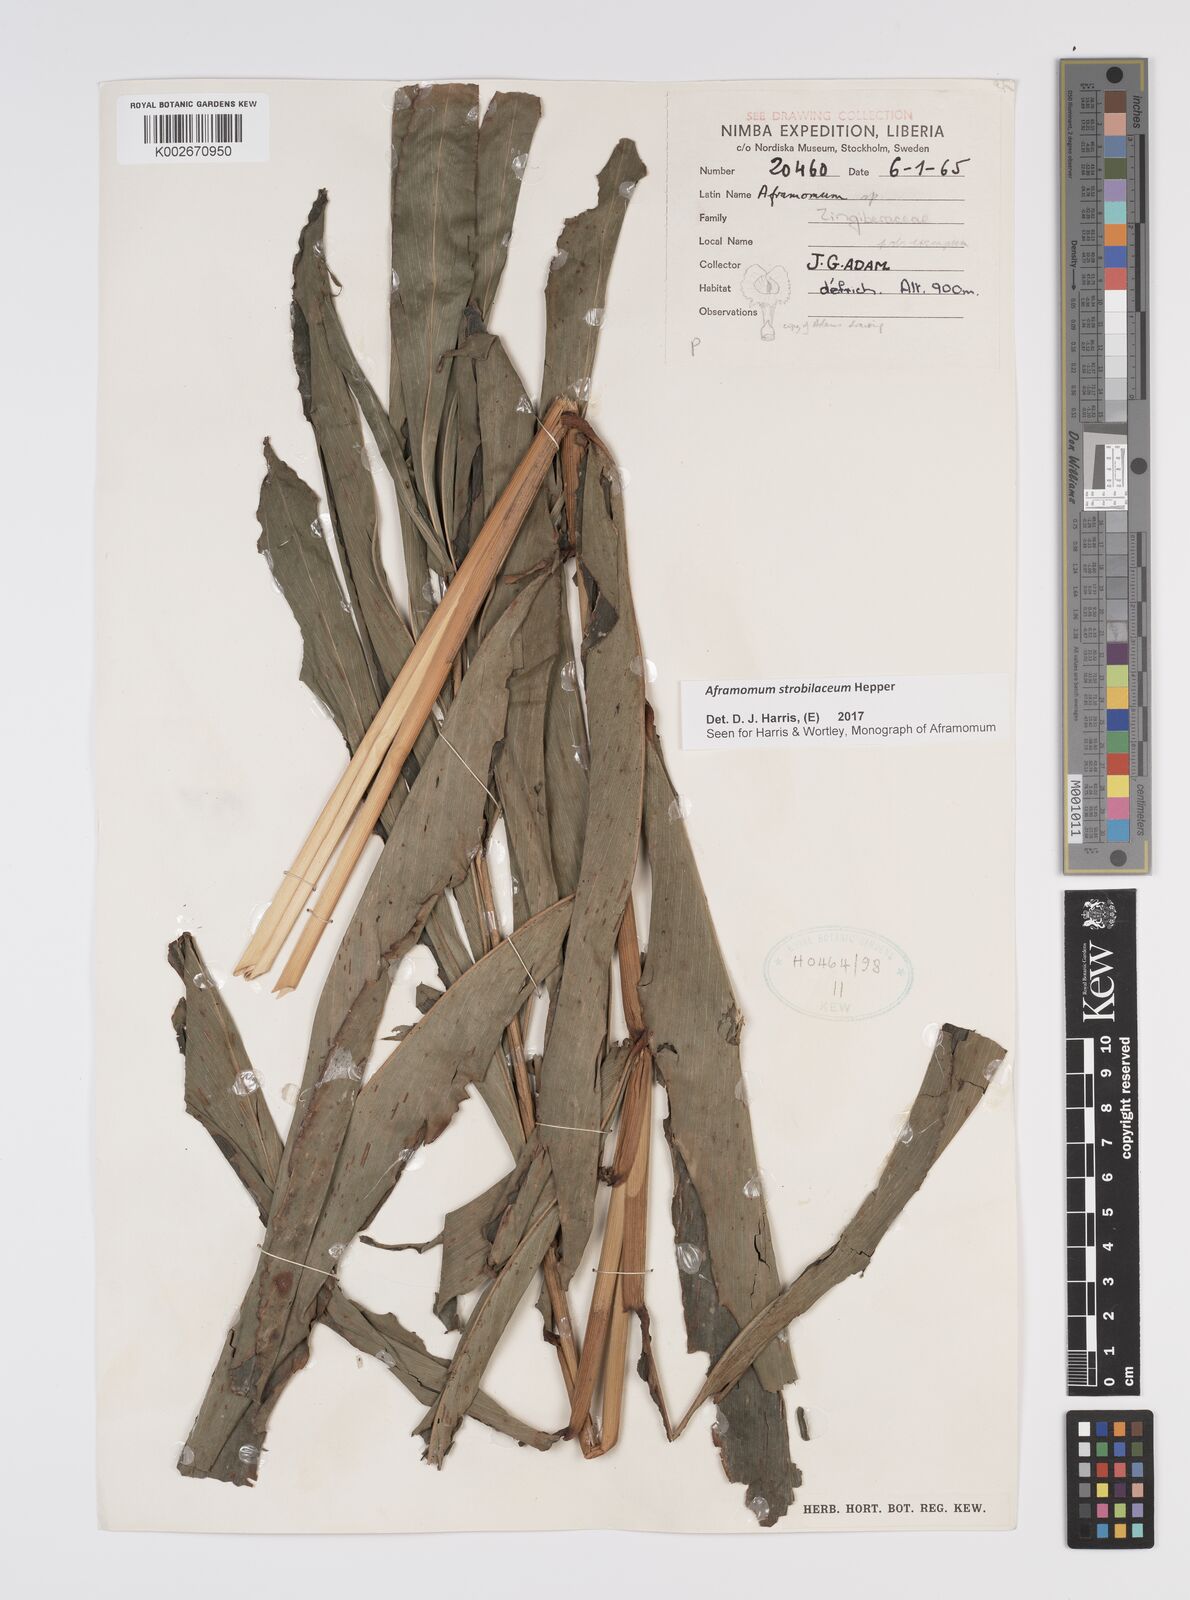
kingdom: Plantae
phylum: Tracheophyta
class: Liliopsida
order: Zingiberales
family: Zingiberaceae
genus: Aframomum
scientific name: Aframomum strobilaceum
